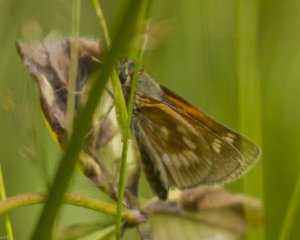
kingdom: Animalia
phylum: Arthropoda
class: Insecta
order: Lepidoptera
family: Hesperiidae
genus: Polites
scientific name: Polites
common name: Long Dash Skipper
